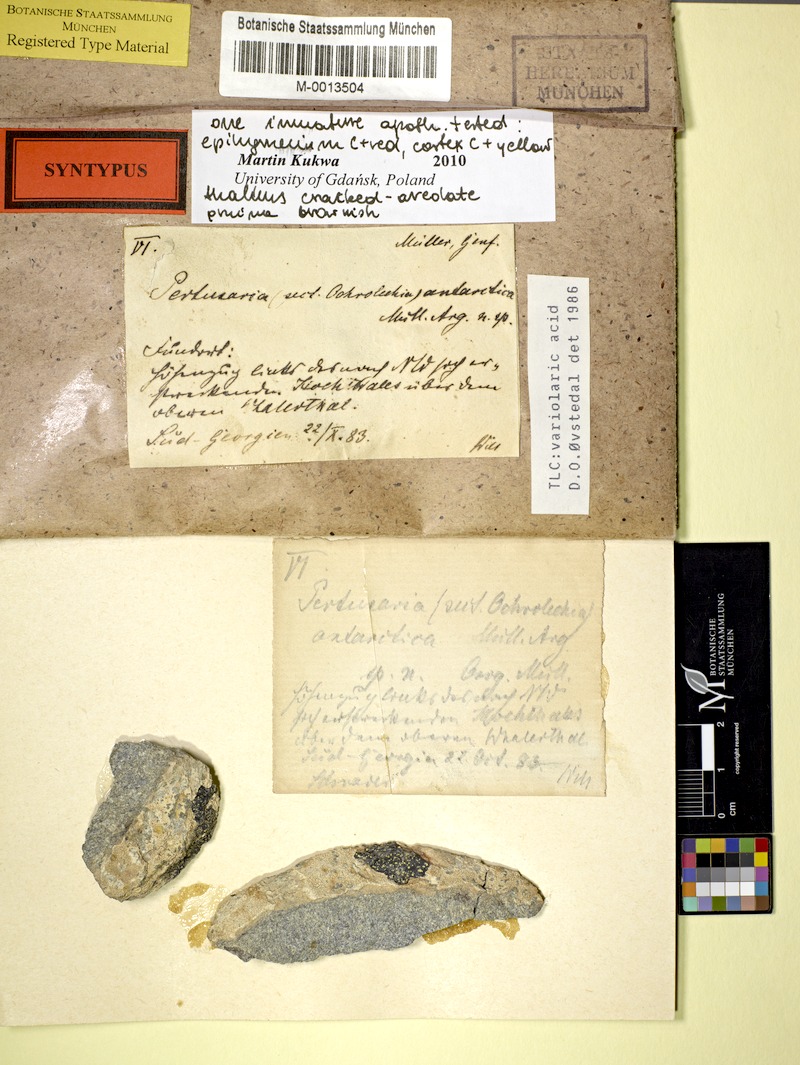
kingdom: Fungi
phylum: Ascomycota
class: Lecanoromycetes
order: Pertusariales
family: Ochrolechiaceae
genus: Ochrolechia
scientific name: Ochrolechia antarctica
